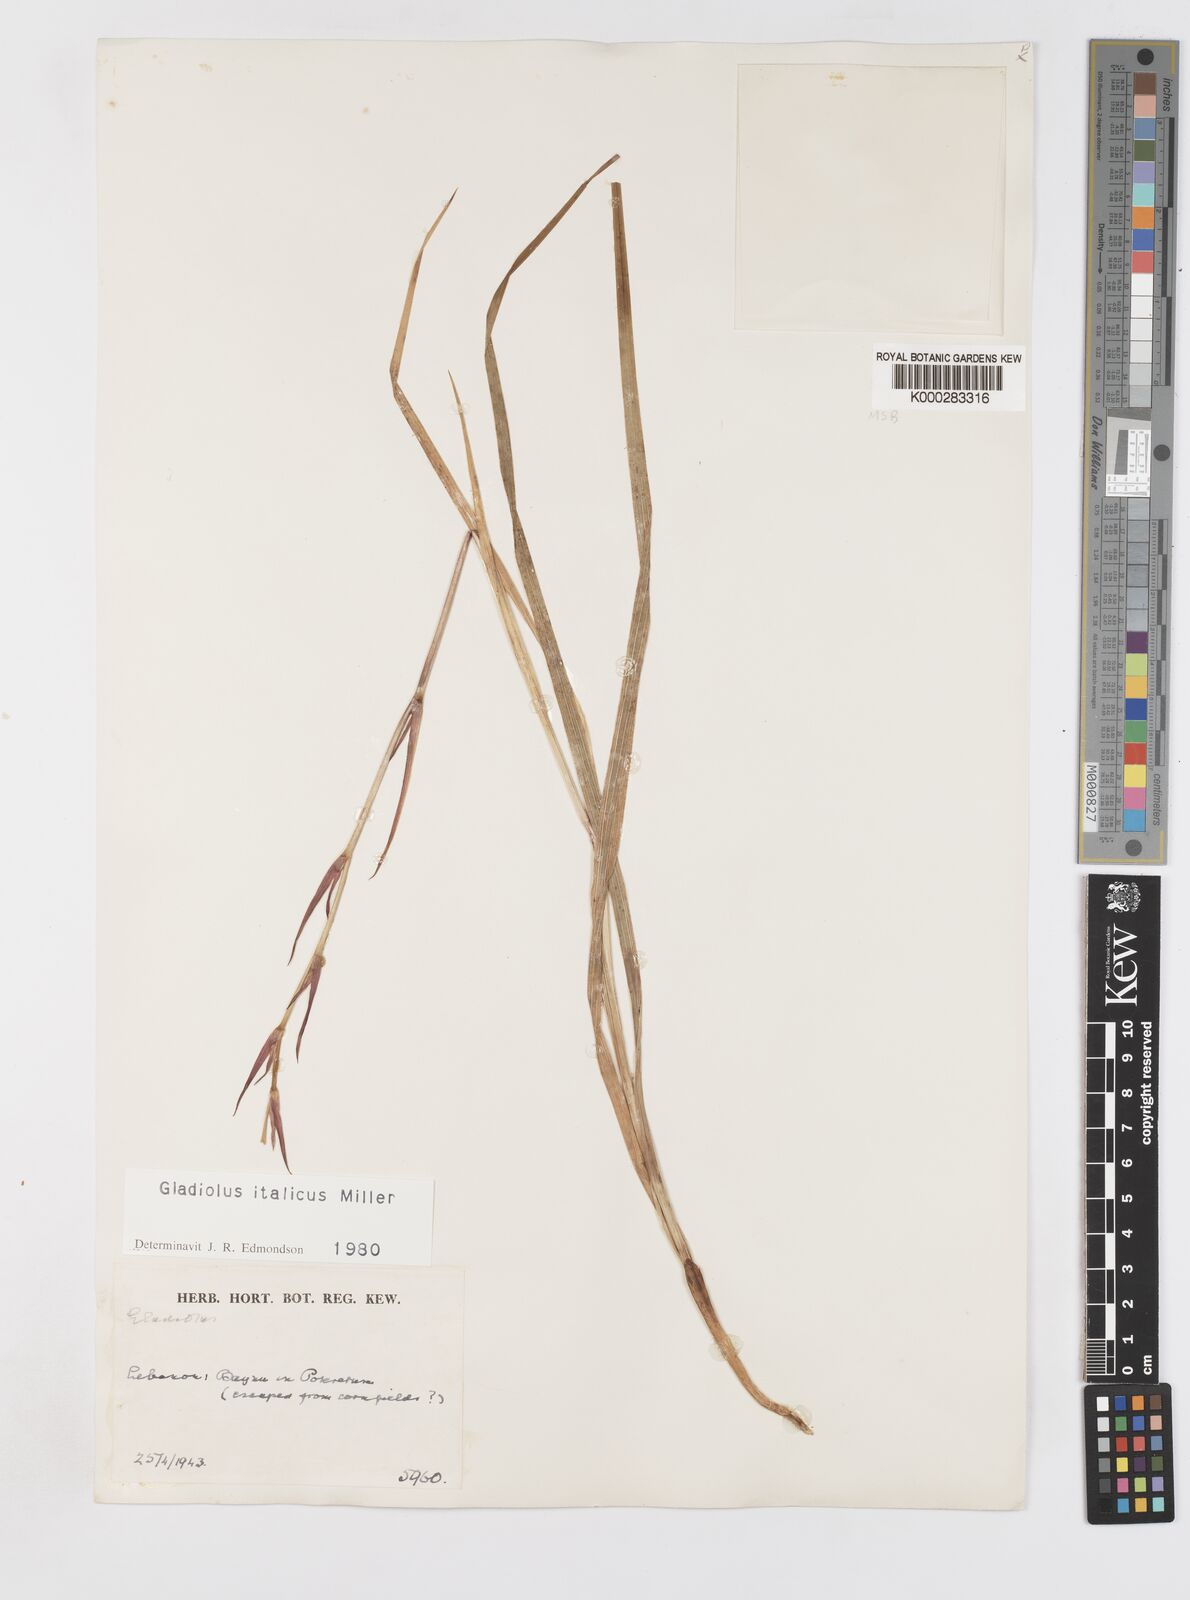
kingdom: Plantae
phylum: Tracheophyta
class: Liliopsida
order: Asparagales
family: Iridaceae
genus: Gladiolus
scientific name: Gladiolus italicus
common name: Field gladiolus
